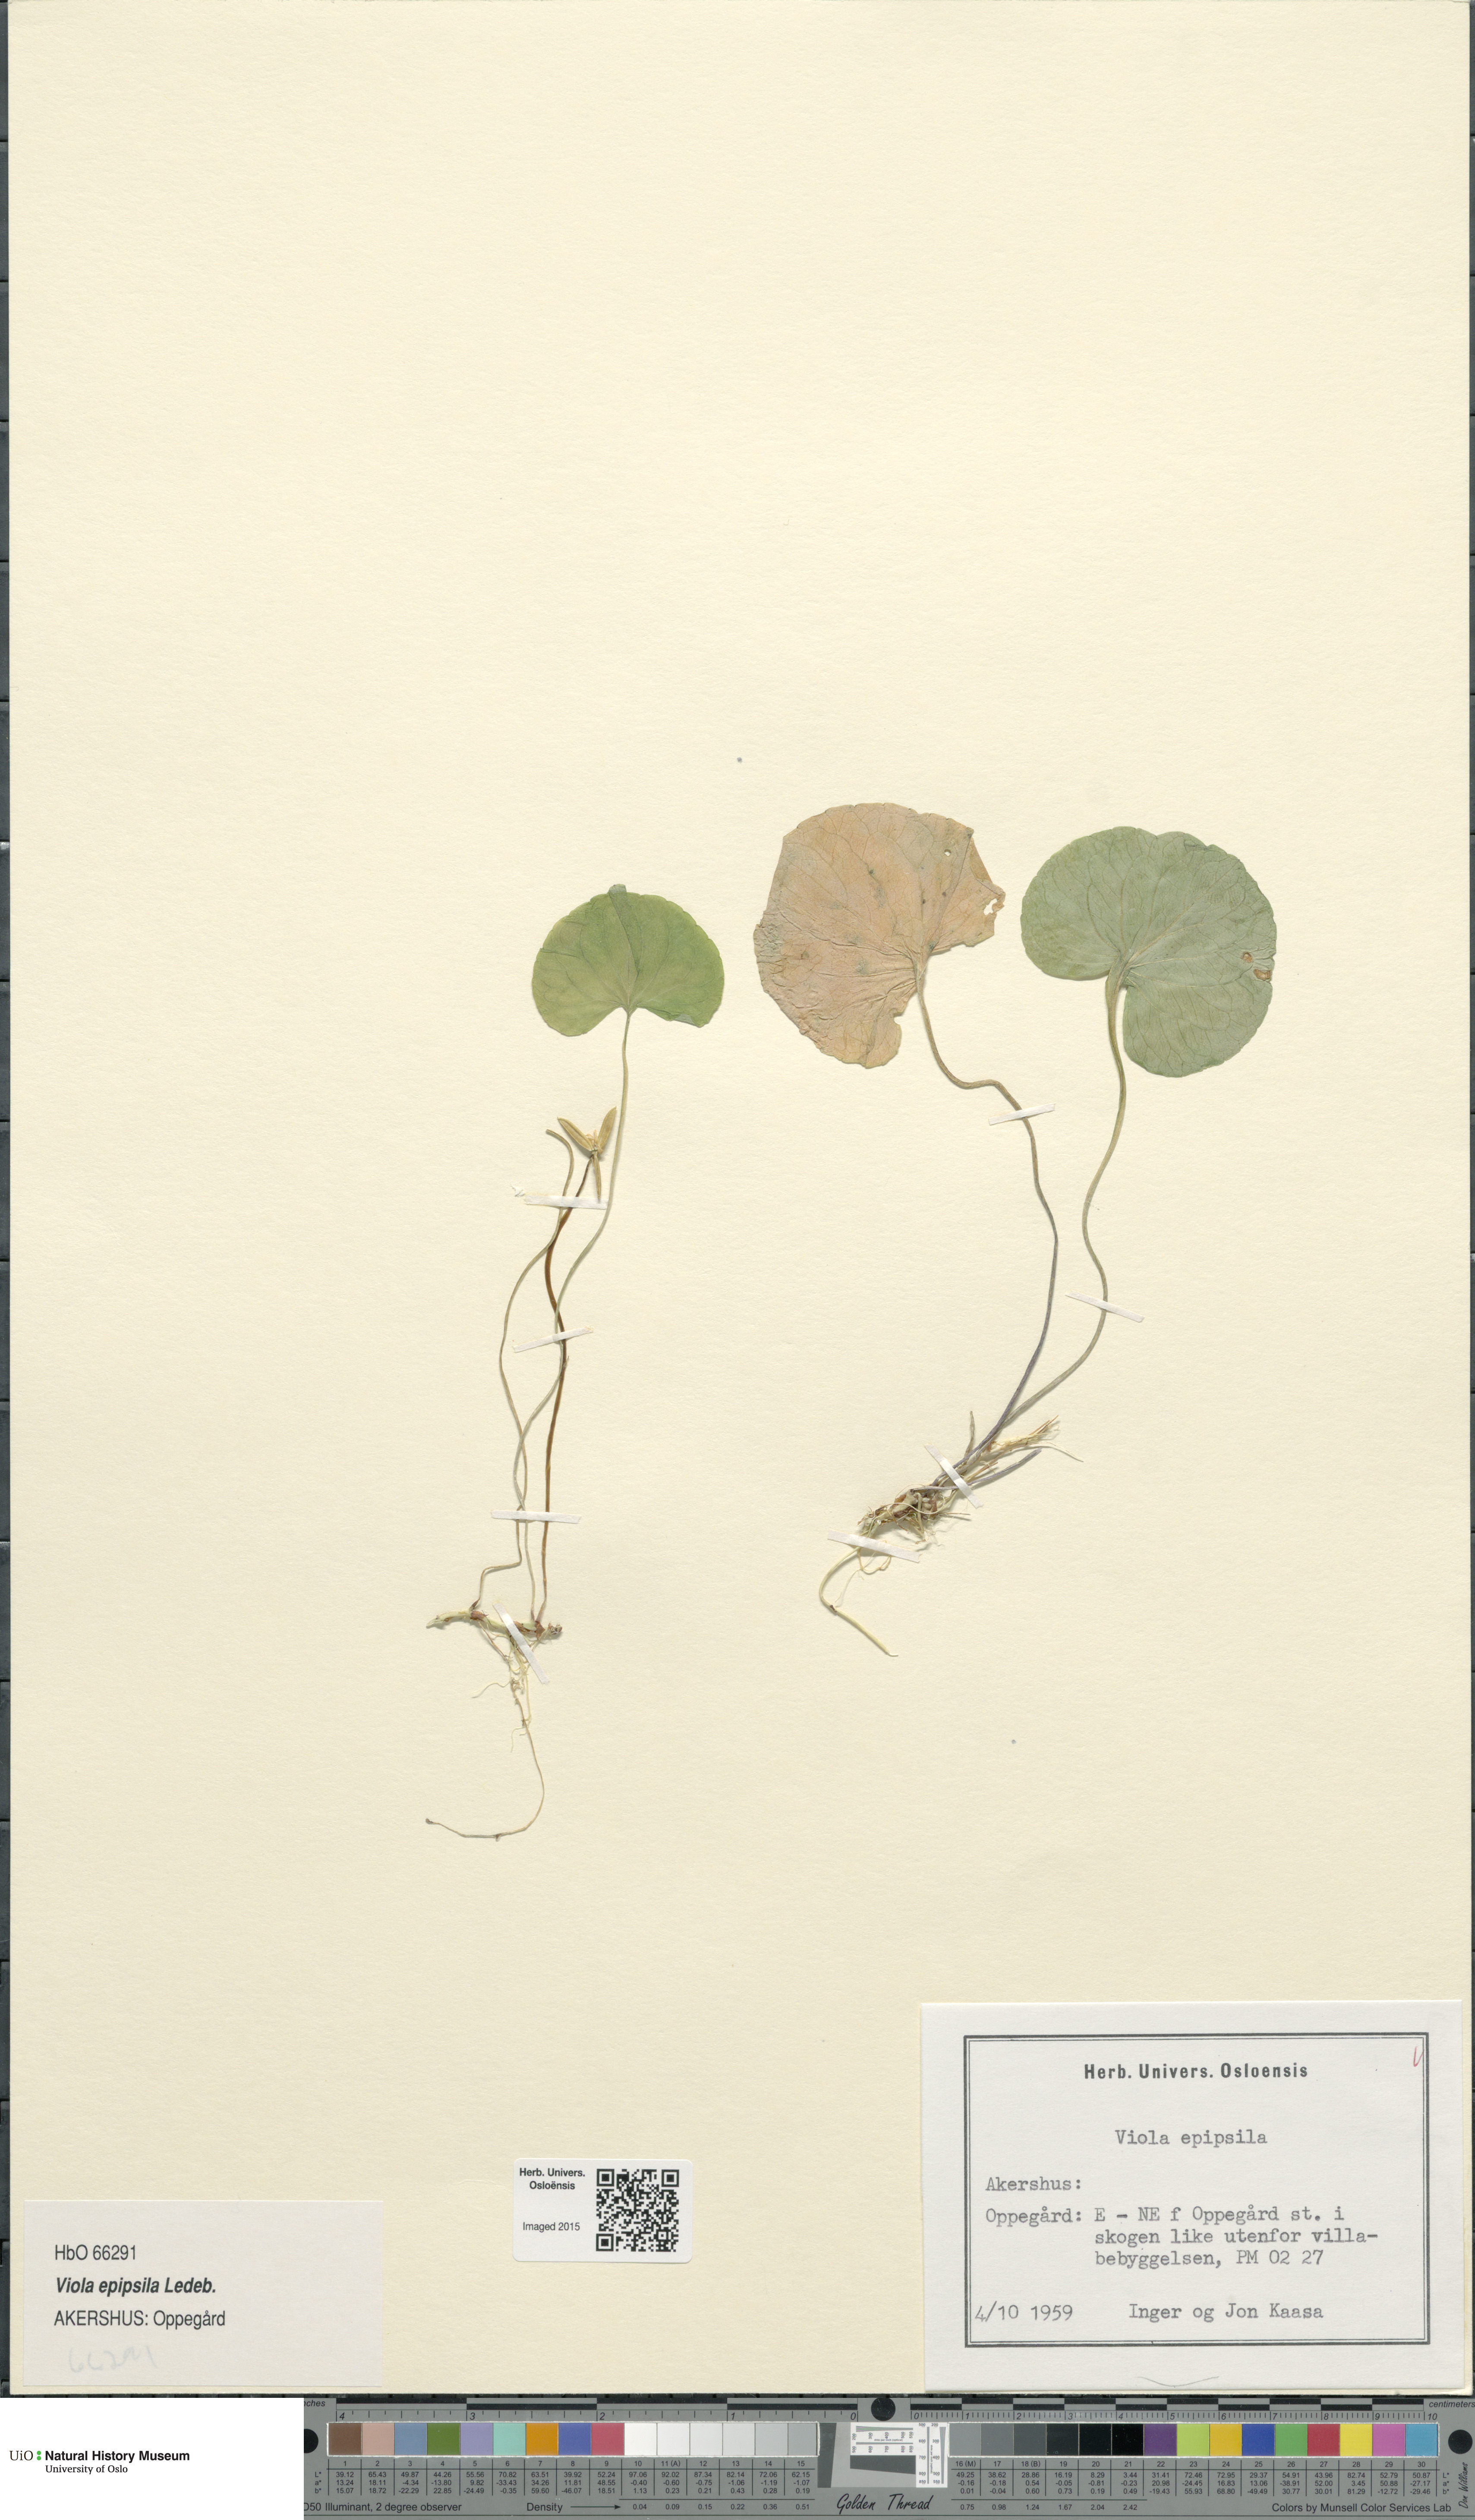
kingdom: Plantae
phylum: Tracheophyta
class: Magnoliopsida
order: Malpighiales
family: Violaceae
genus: Viola
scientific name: Viola epipsila
